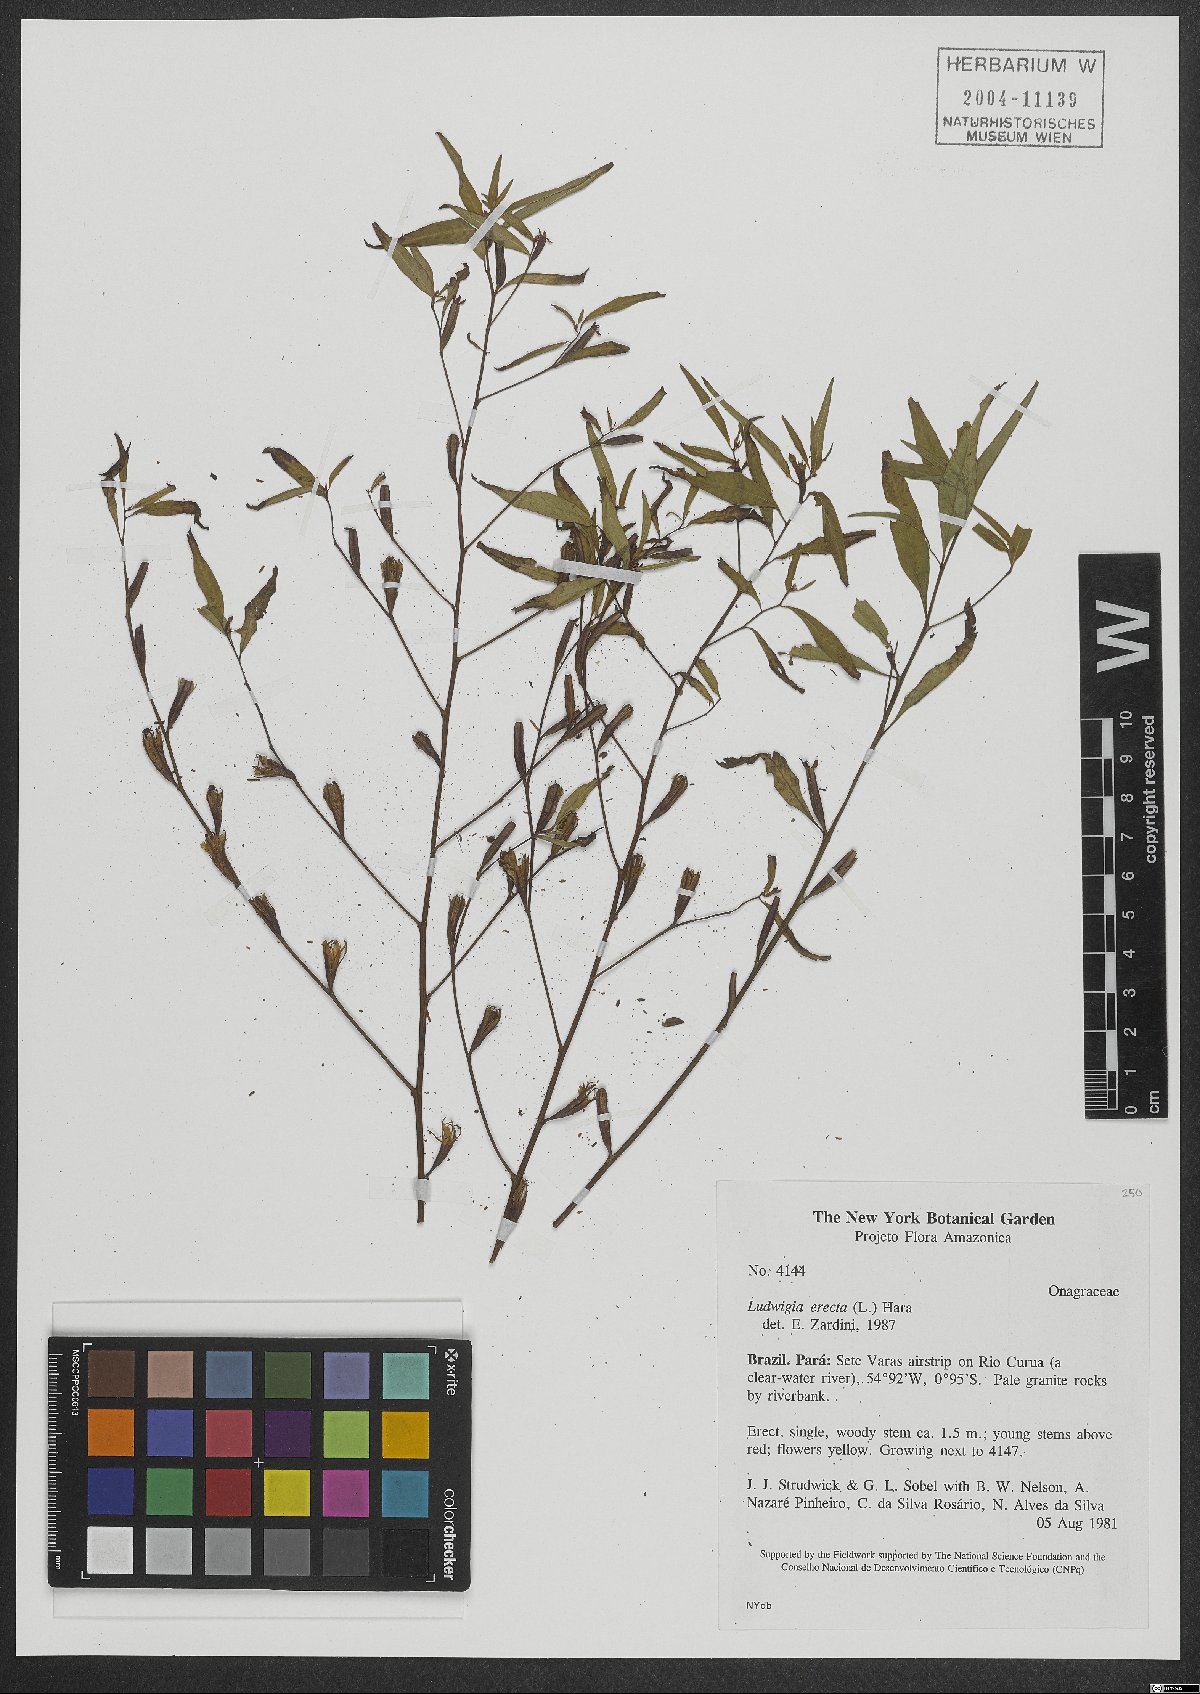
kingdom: Plantae
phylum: Tracheophyta
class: Magnoliopsida
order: Myrtales
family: Onagraceae
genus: Ludwigia
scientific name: Ludwigia erecta
